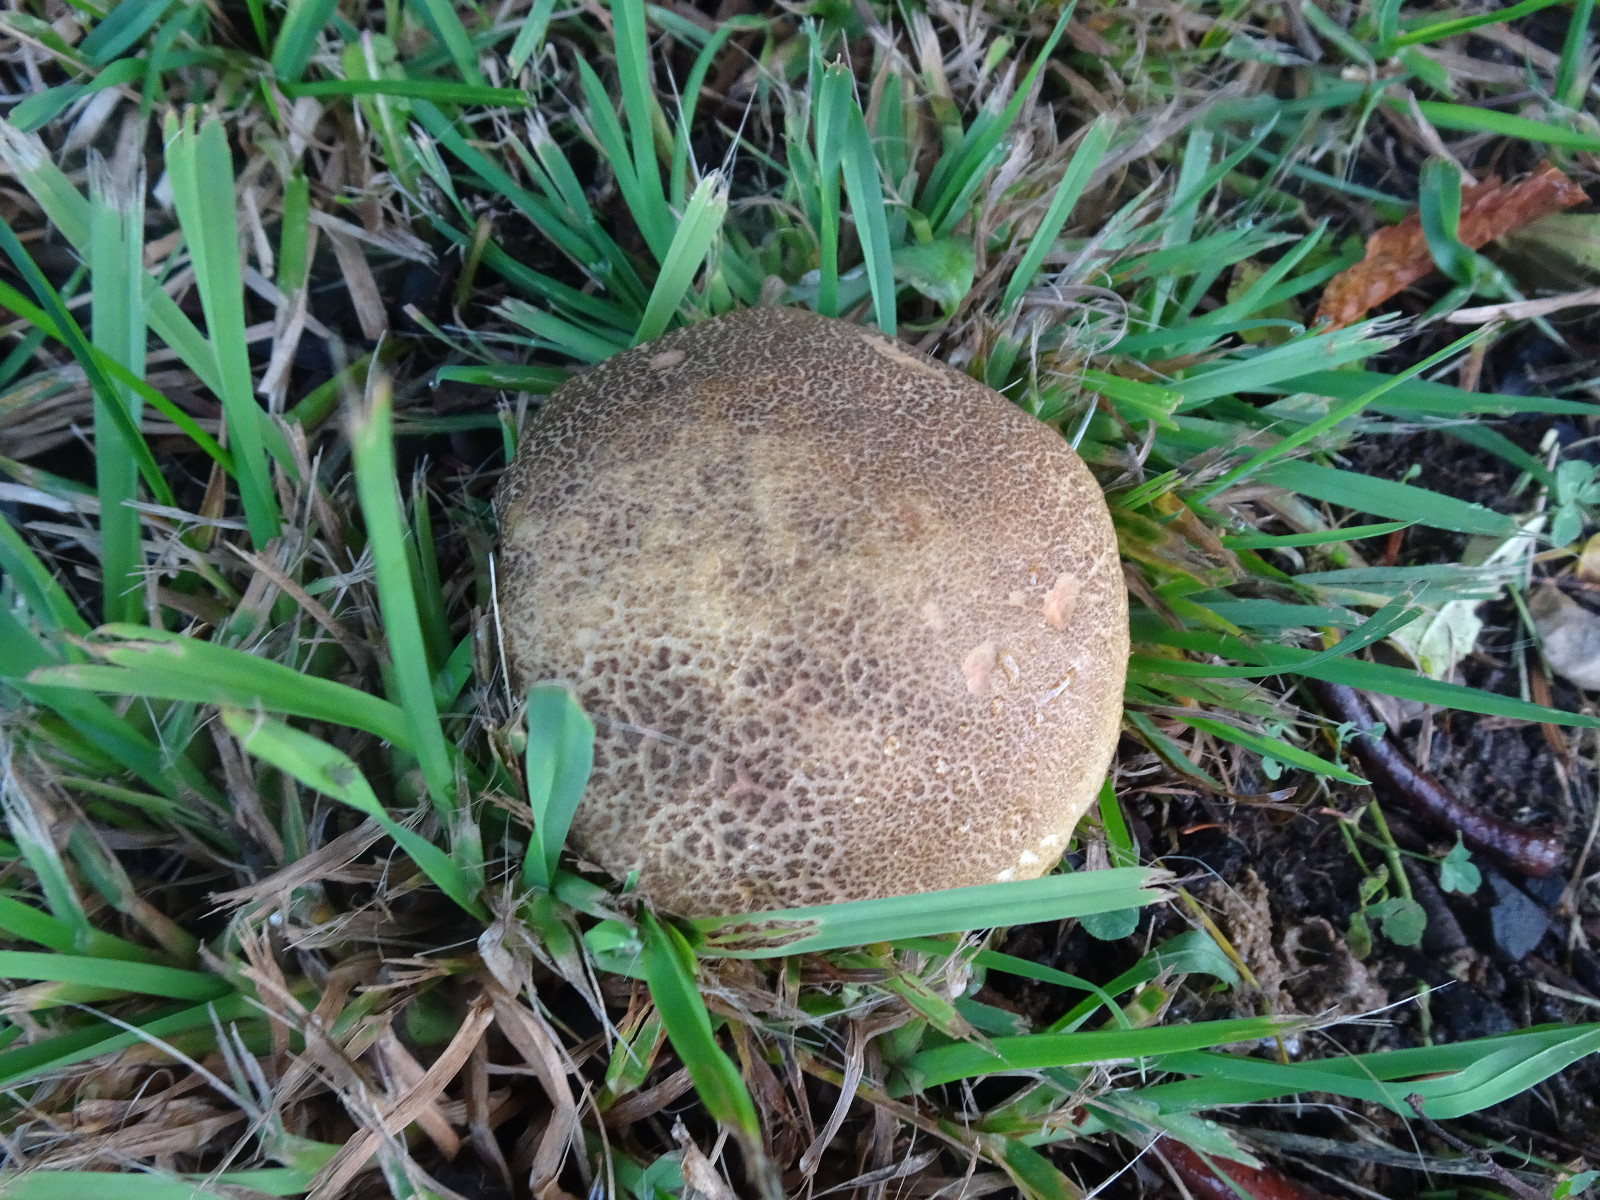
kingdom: Fungi
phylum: Basidiomycota
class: Agaricomycetes
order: Boletales
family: Boletaceae
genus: Xerocomellus
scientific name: Xerocomellus chrysenteron
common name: rødsprukken rørhat
